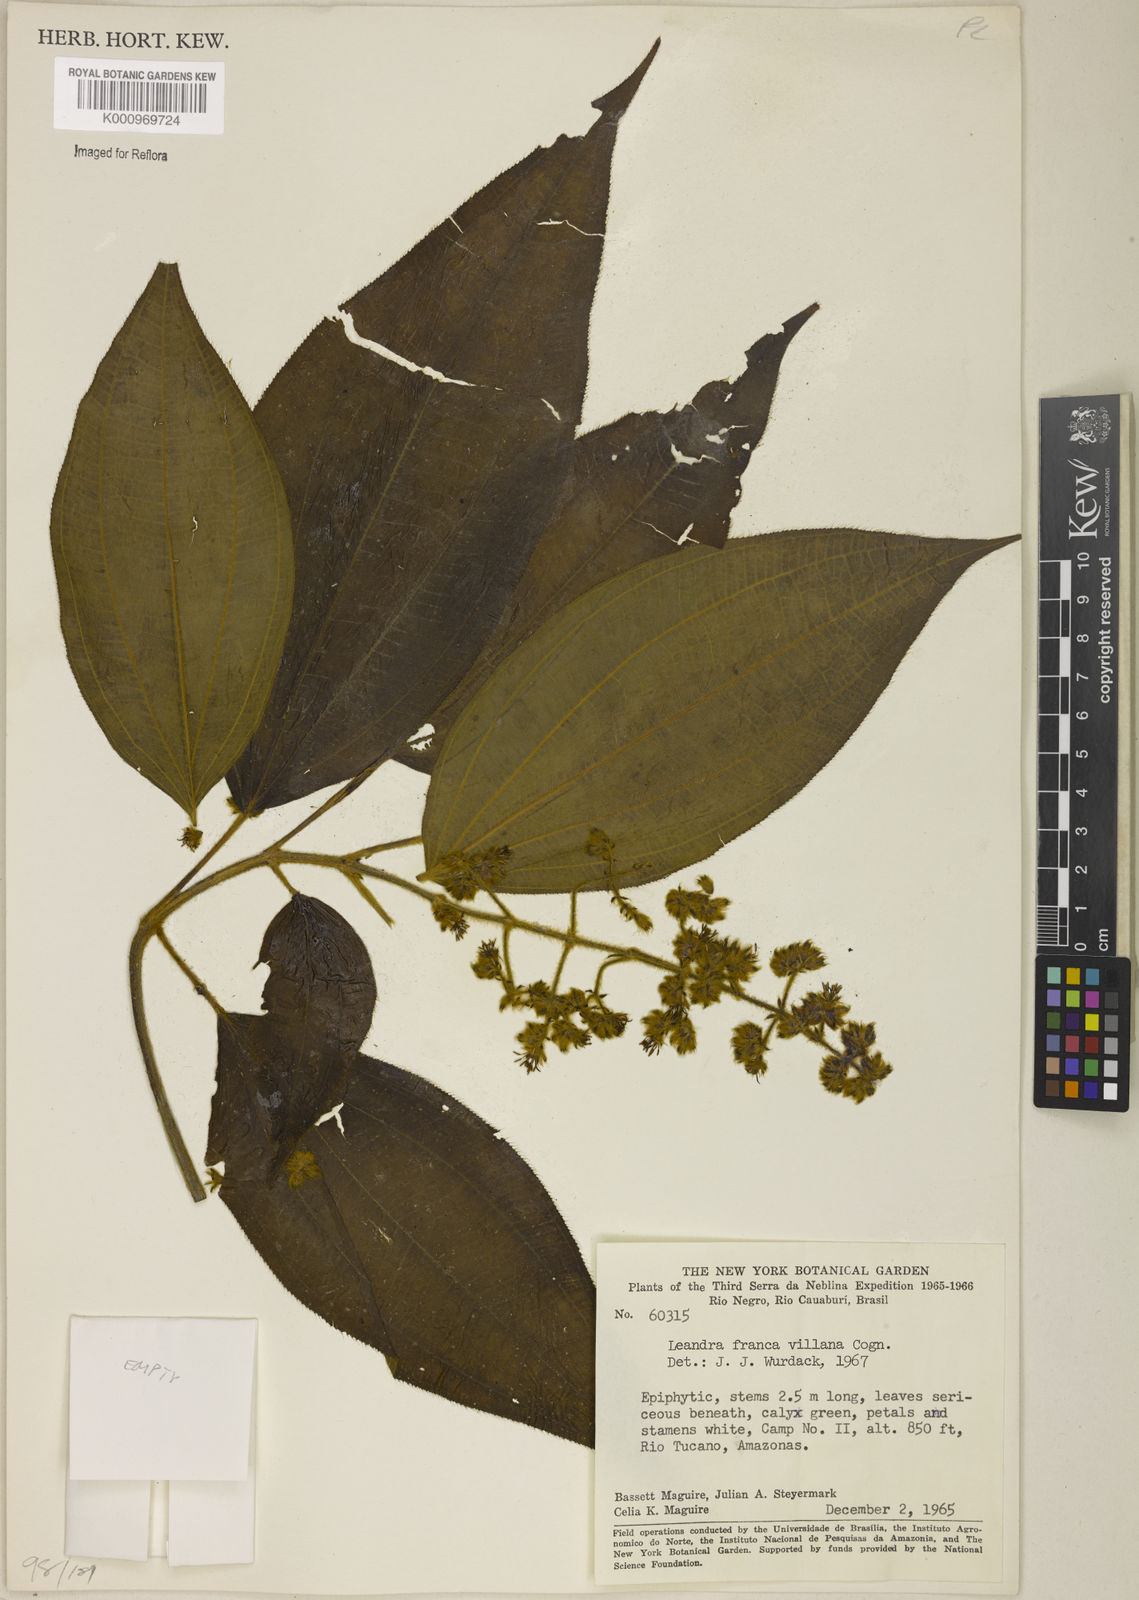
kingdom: Plantae
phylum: Tracheophyta
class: Magnoliopsida
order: Myrtales
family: Melastomataceae
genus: Miconia
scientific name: Miconia secunfrancavillana
